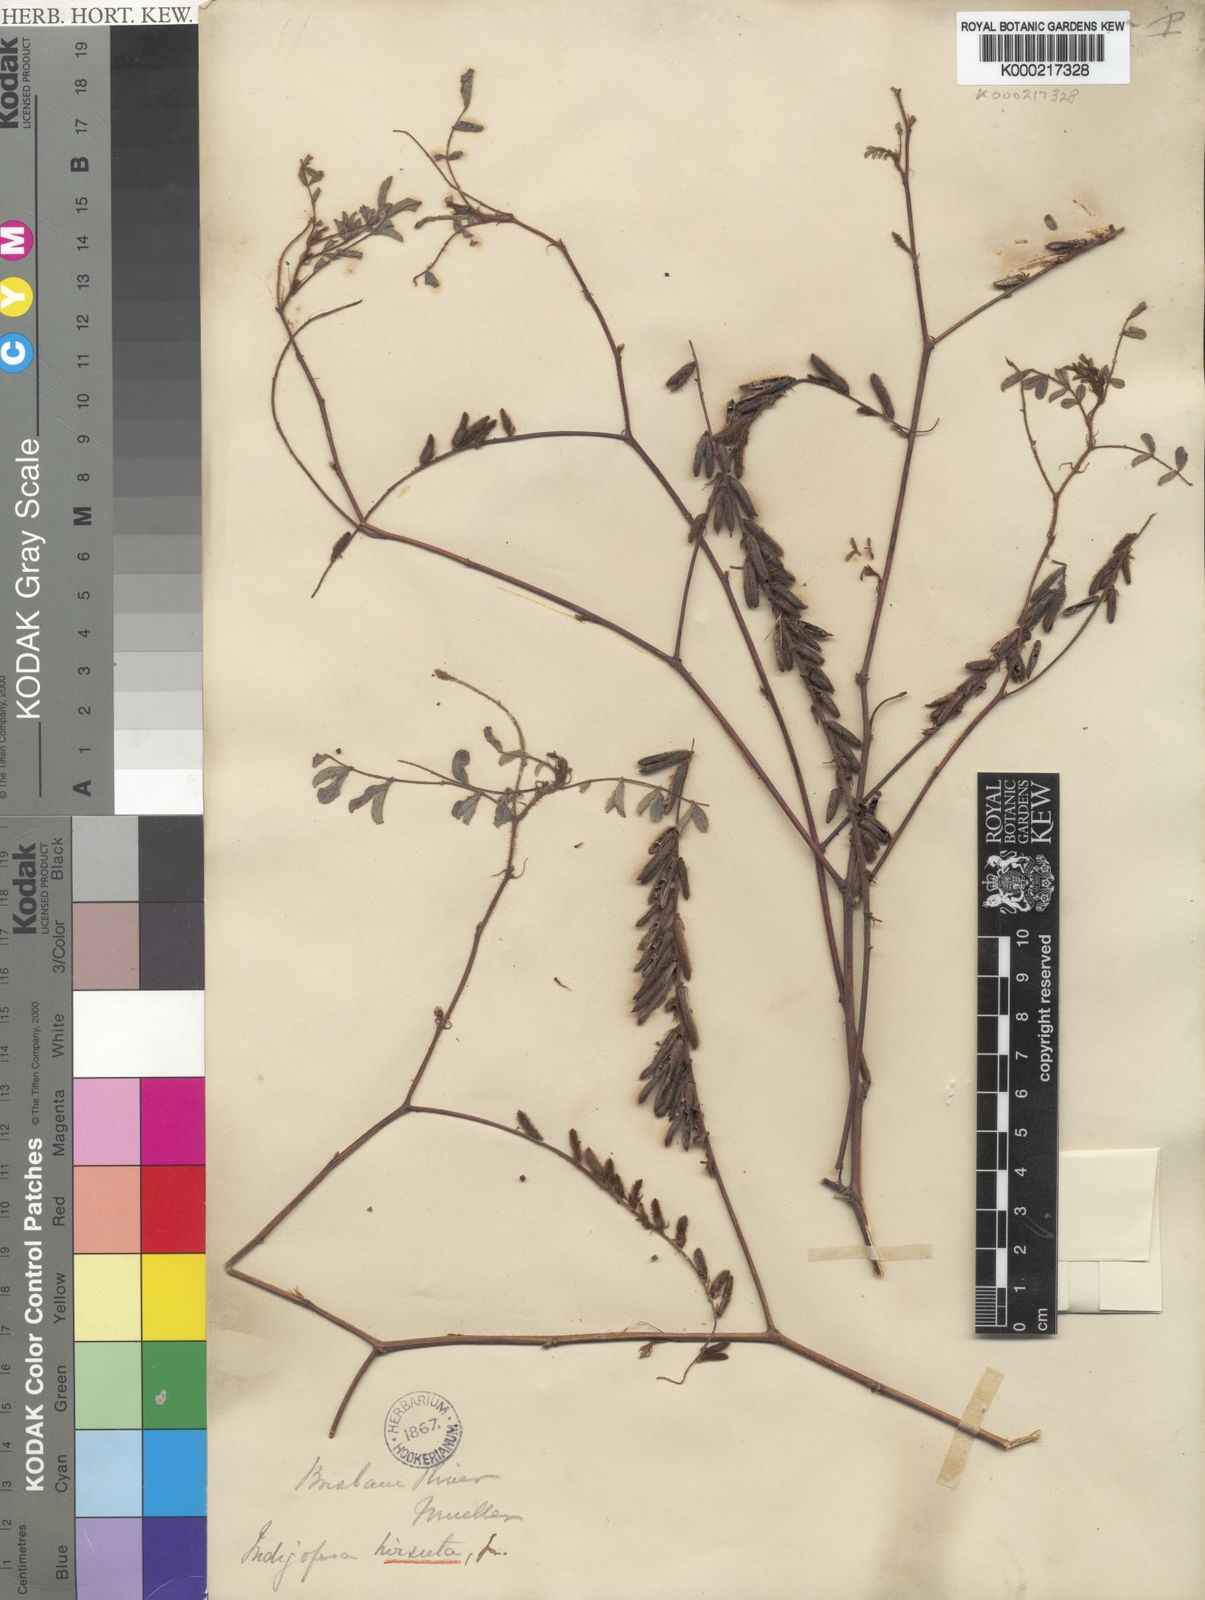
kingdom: Plantae
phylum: Tracheophyta
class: Magnoliopsida
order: Fabales
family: Fabaceae
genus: Indigofera
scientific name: Indigofera hirsuta
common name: Hairy indigo
